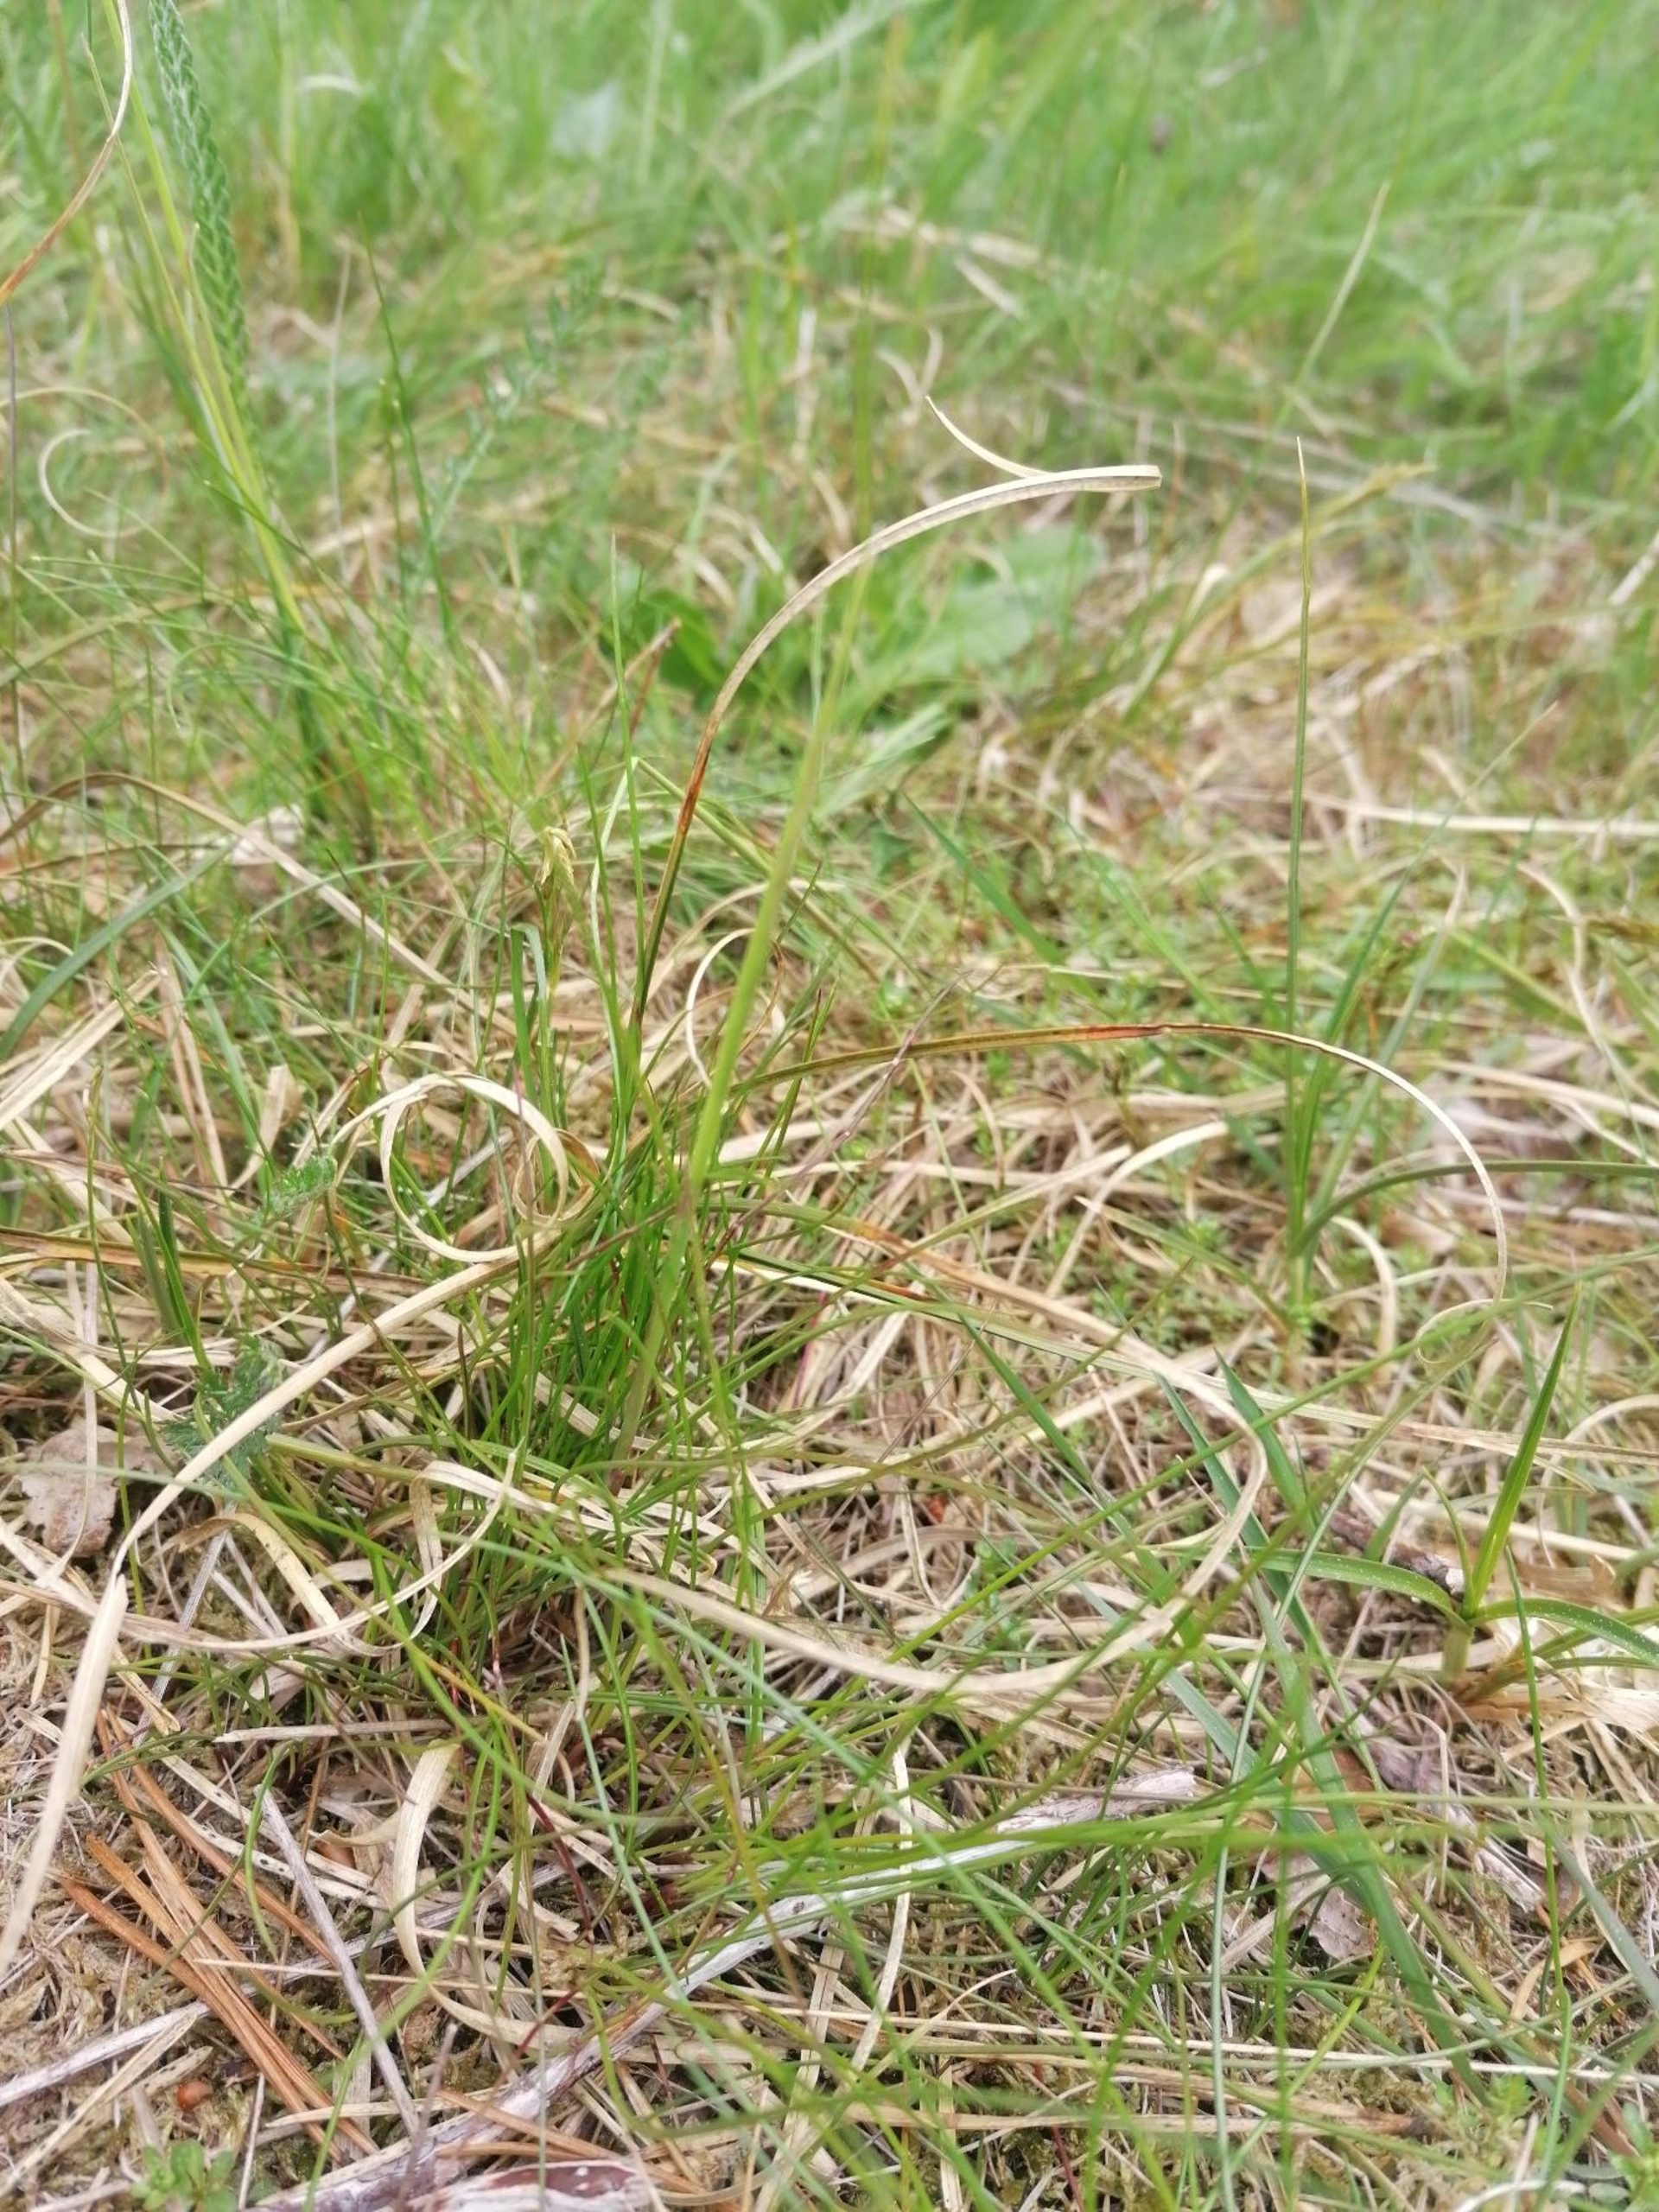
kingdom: Plantae
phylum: Tracheophyta
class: Liliopsida
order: Poales
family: Cyperaceae
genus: Carex
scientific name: Carex arenaria
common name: Sand-star
